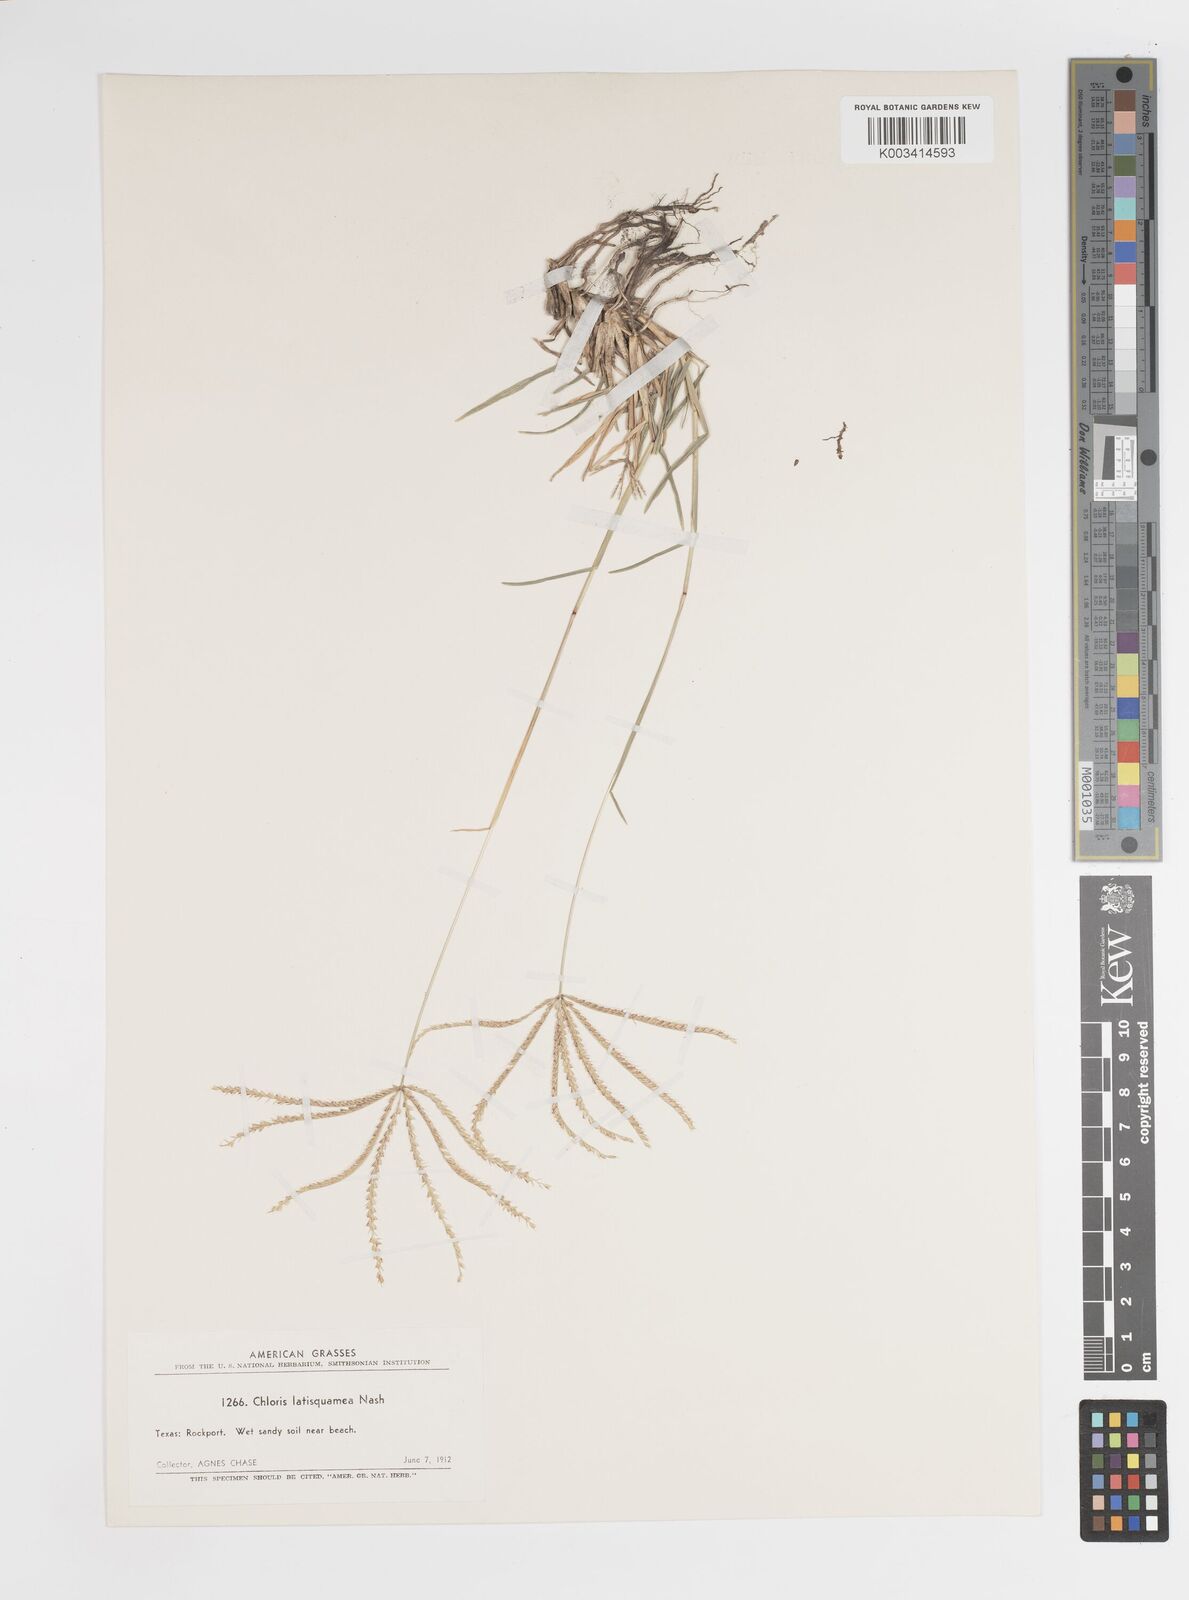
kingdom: Plantae
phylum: Tracheophyta
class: Liliopsida
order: Poales
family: Poaceae
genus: Chloris
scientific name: Chloris subdolichostachya
